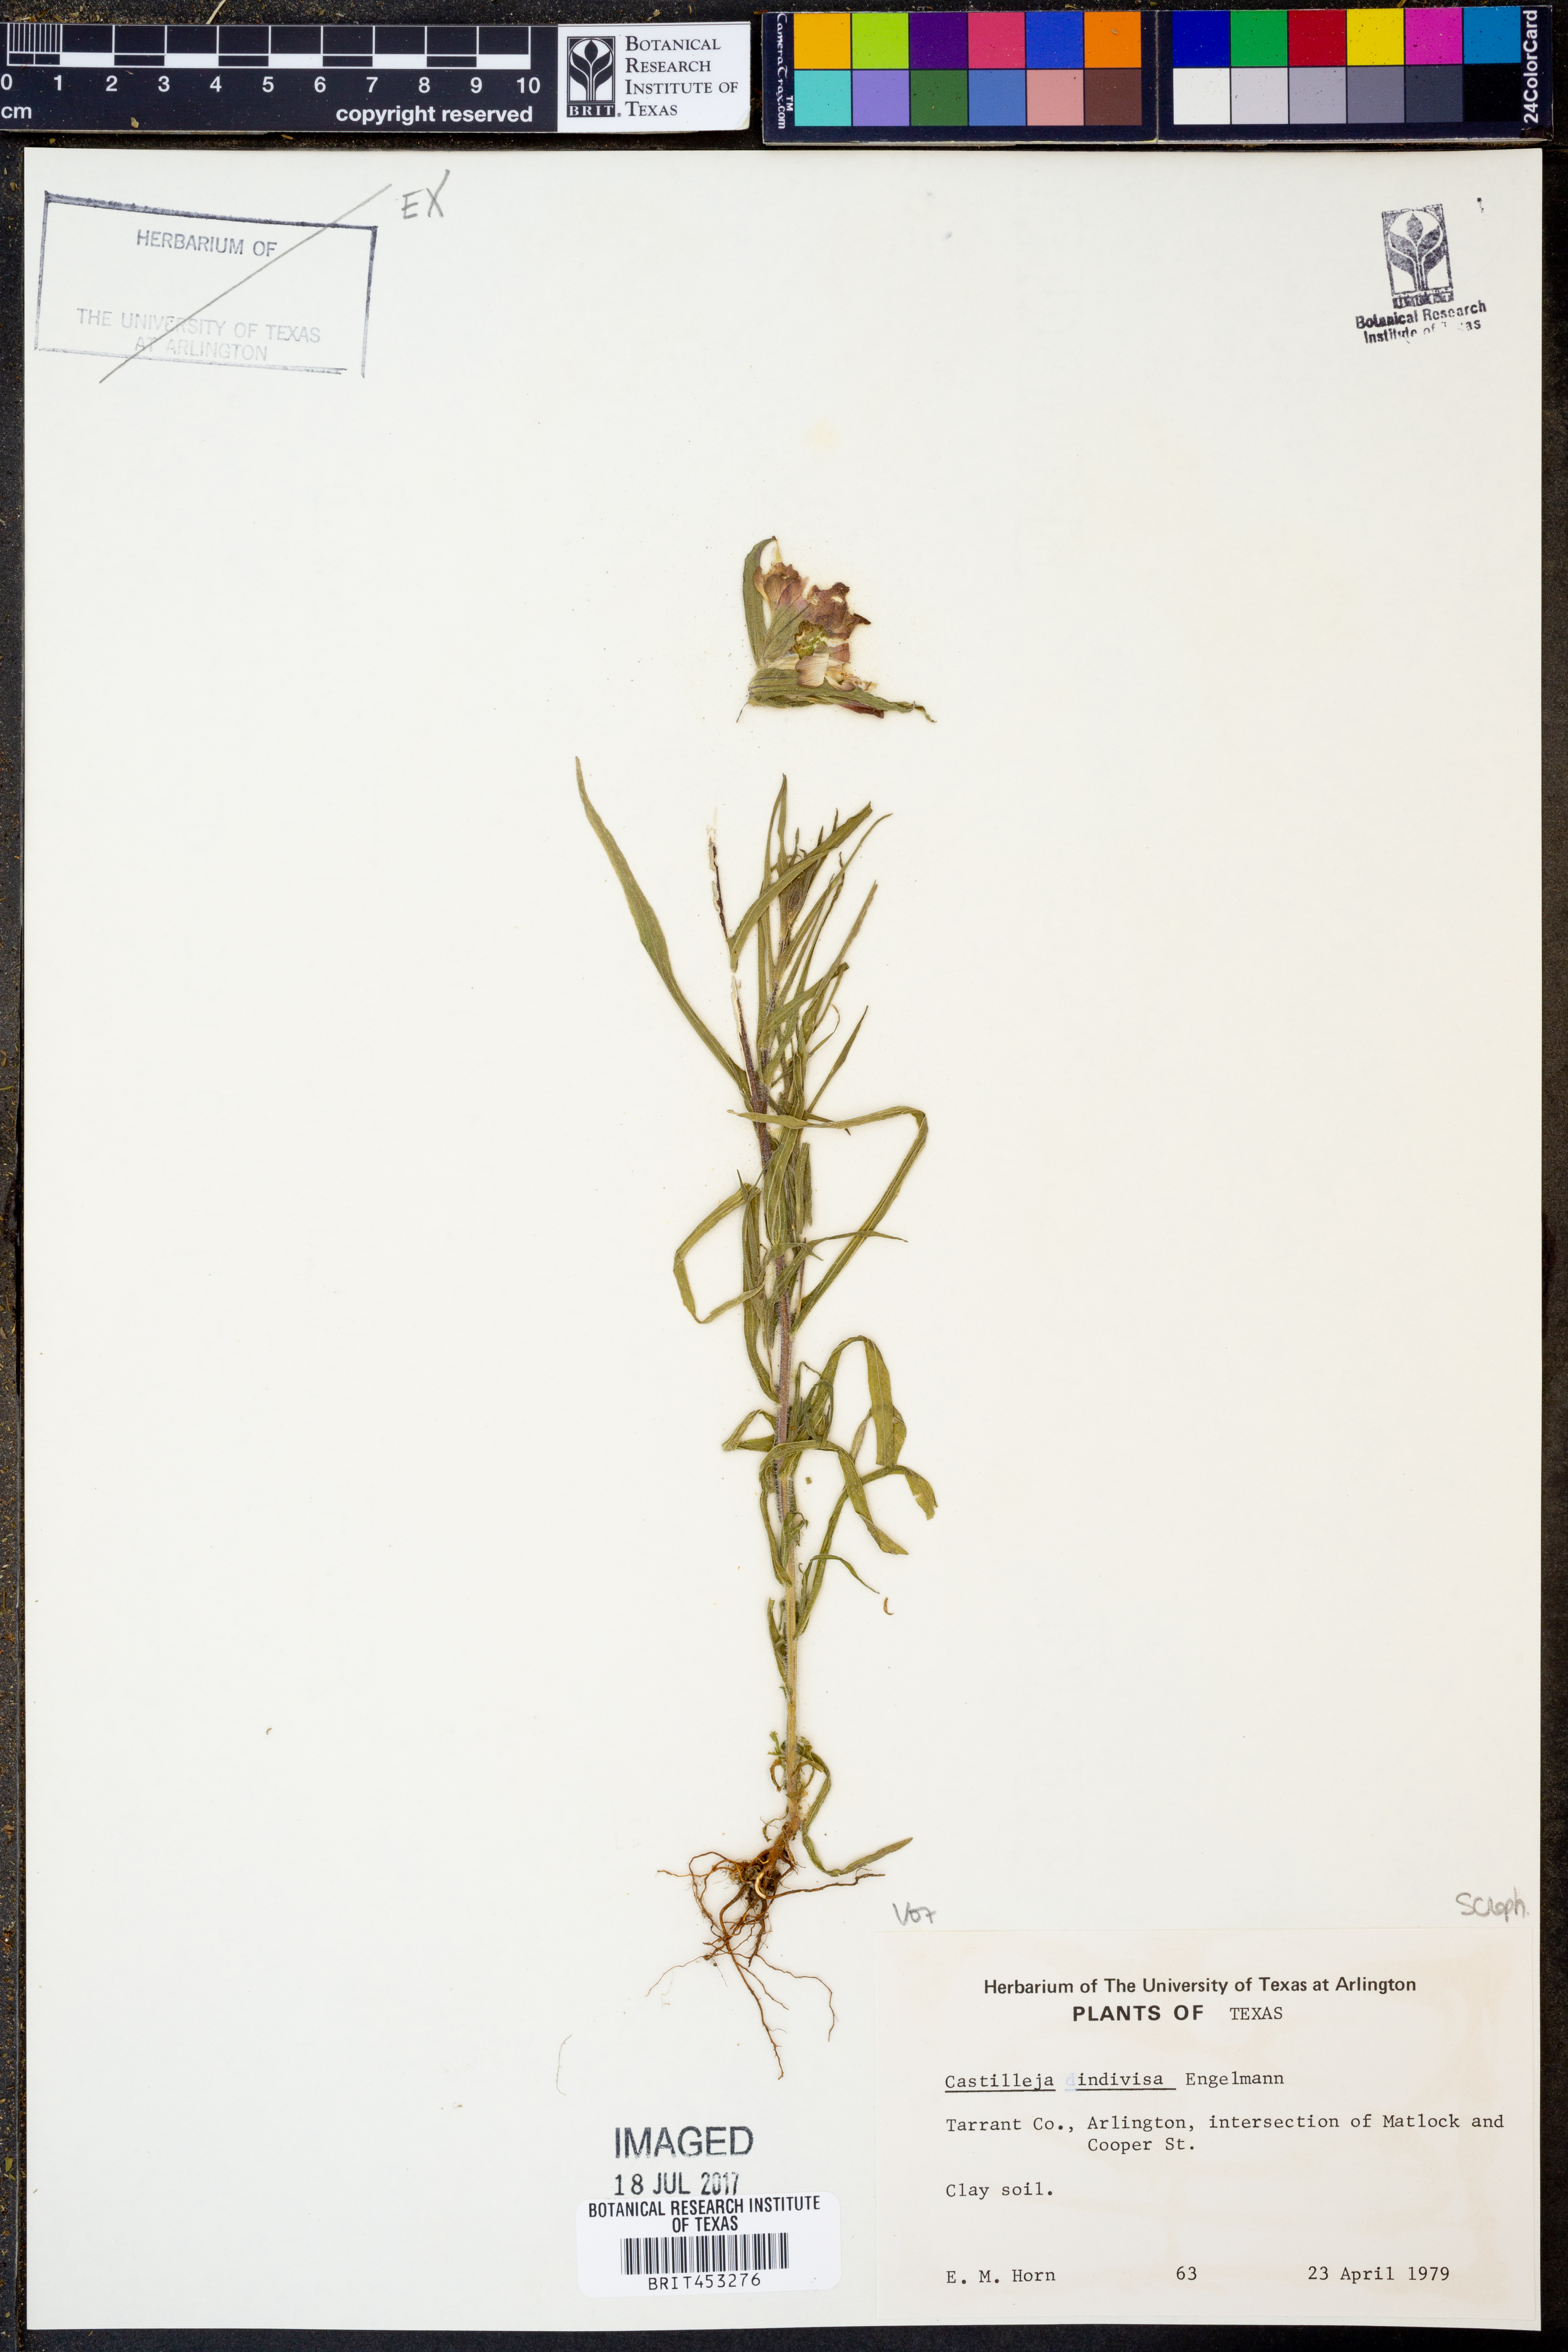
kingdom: Plantae
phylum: Tracheophyta
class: Magnoliopsida
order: Lamiales
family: Orobanchaceae
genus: Castilleja
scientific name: Castilleja indivisa
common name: Texas paintbrush
